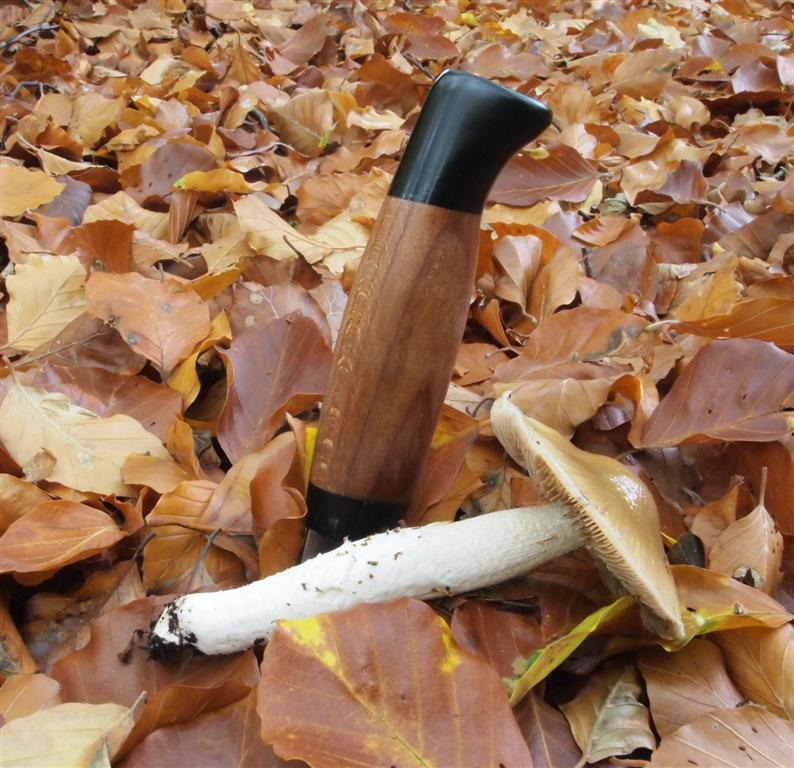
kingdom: Fungi
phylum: Basidiomycota
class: Agaricomycetes
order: Agaricales
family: Cortinariaceae
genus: Cortinarius
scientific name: Cortinarius elatior
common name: høj slørhat
